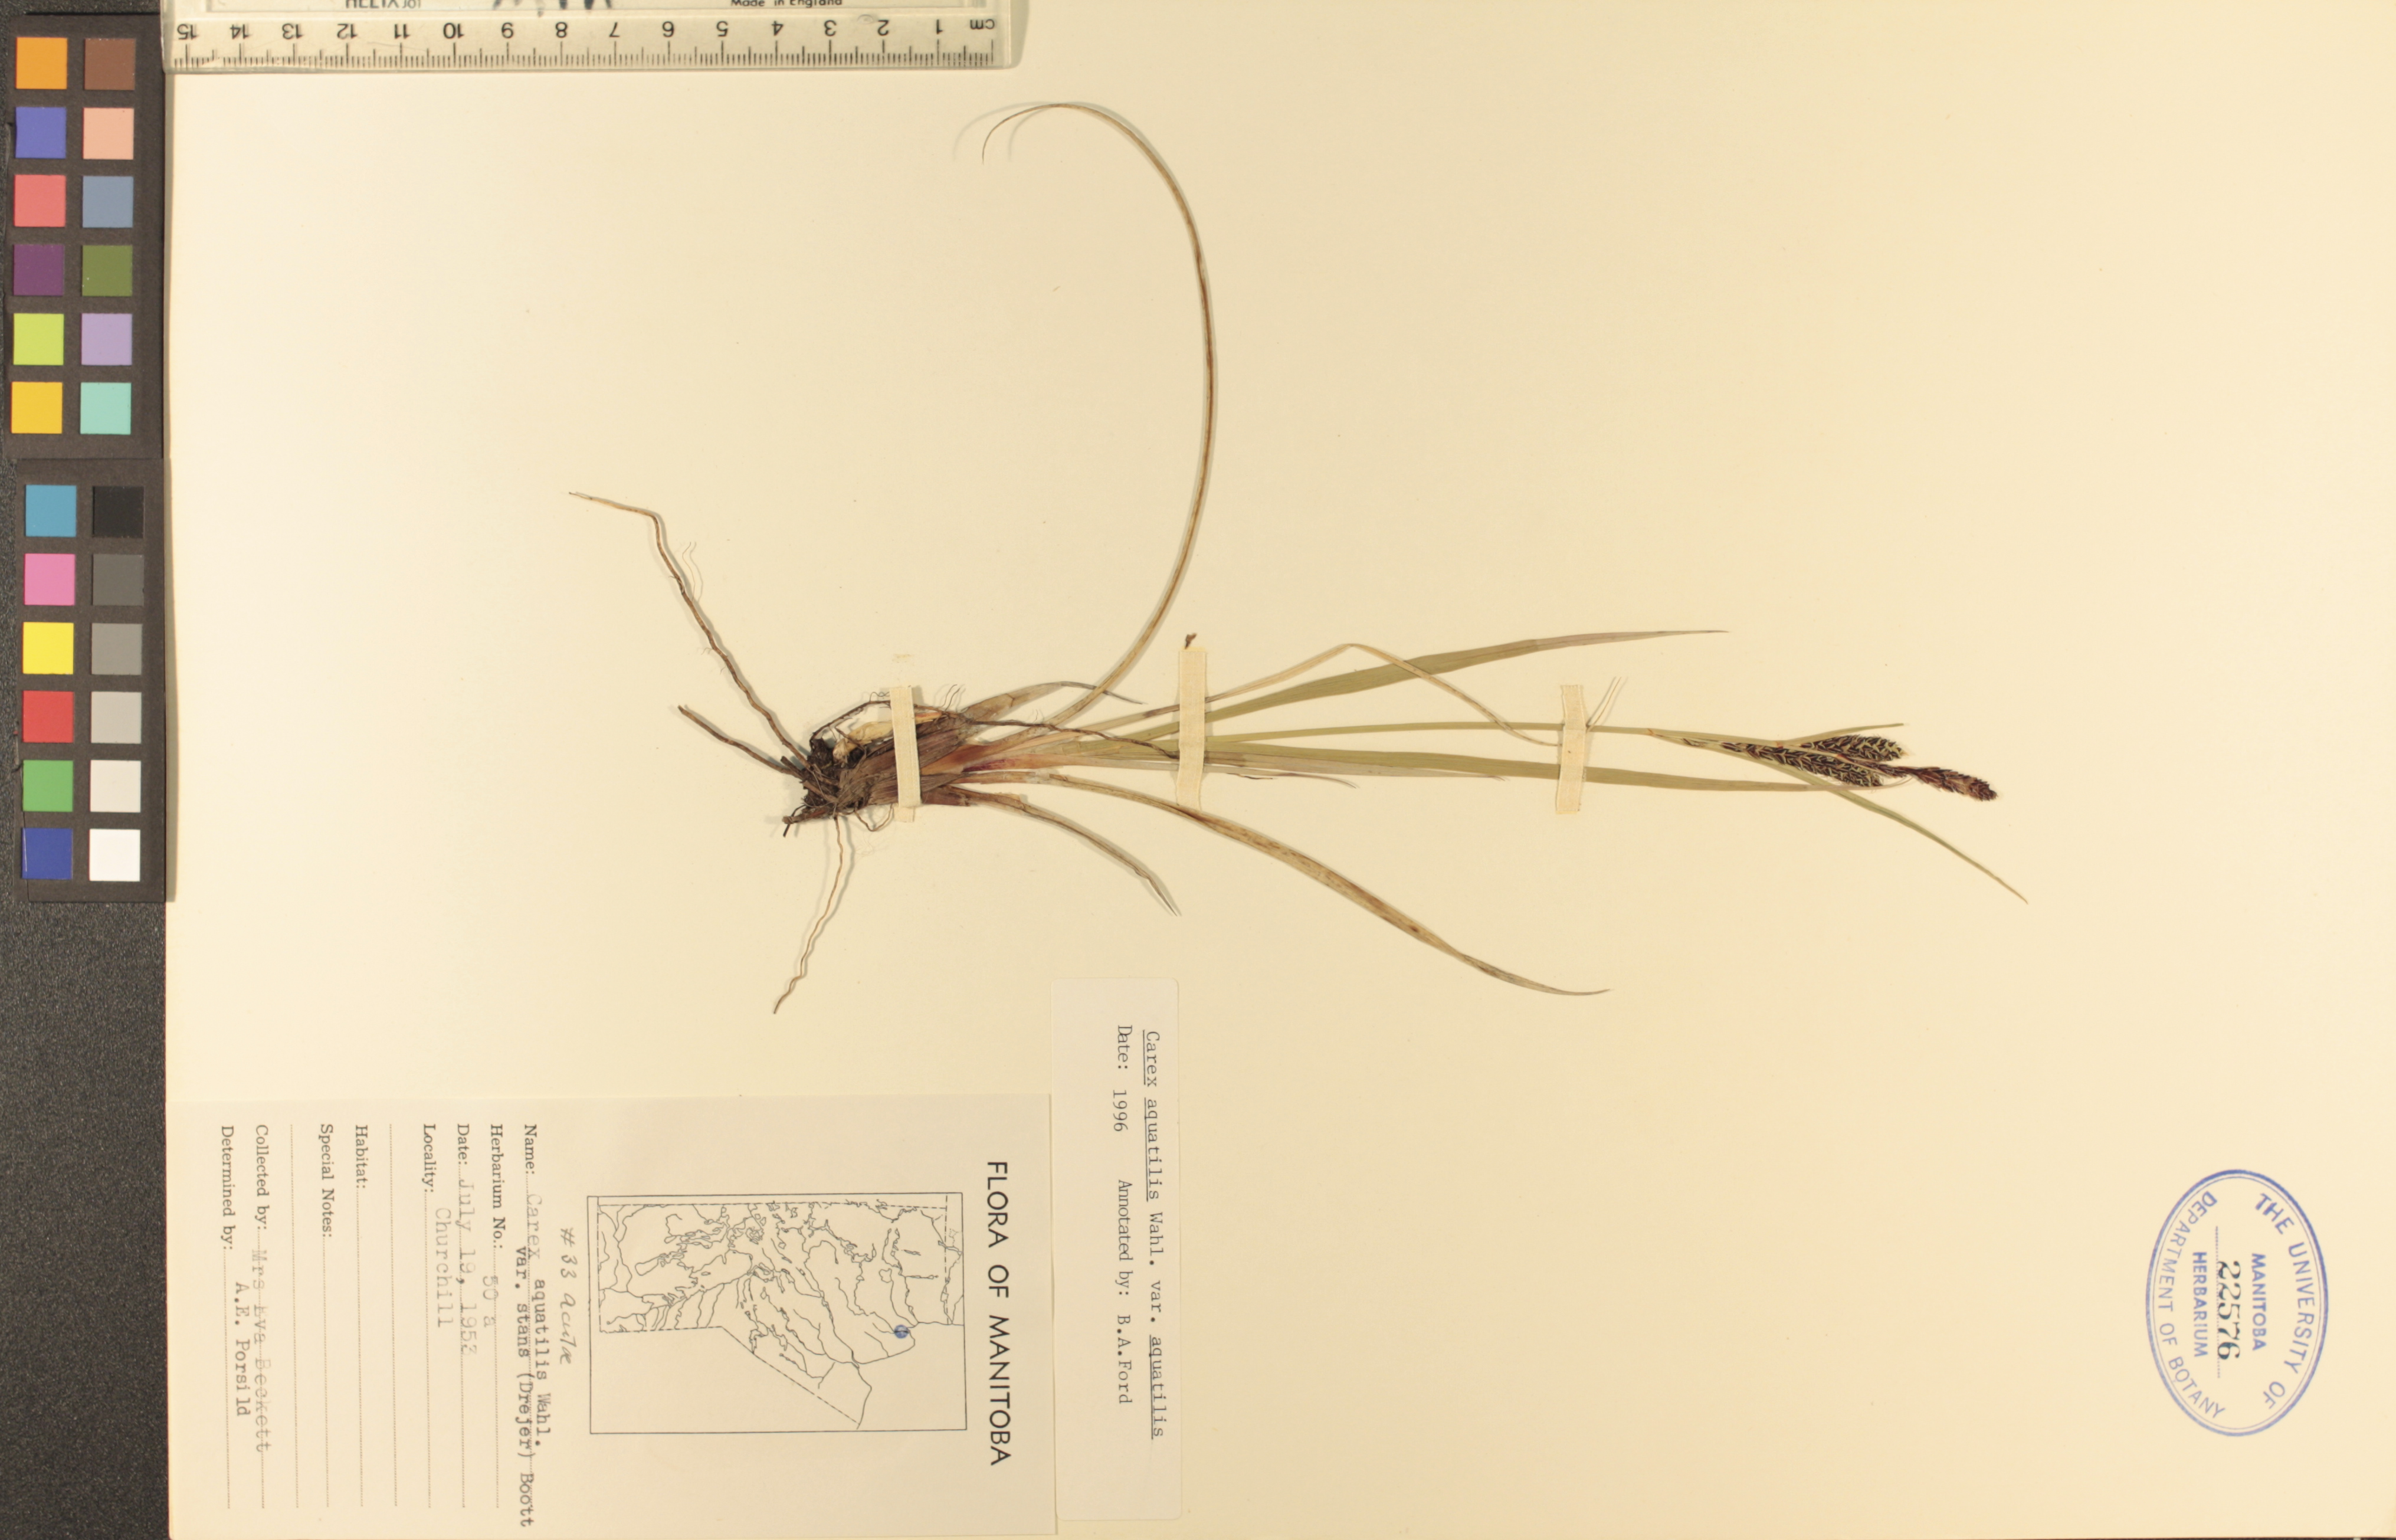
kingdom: Plantae
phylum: Tracheophyta
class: Liliopsida
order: Poales
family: Cyperaceae
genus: Carex
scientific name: Carex aquatilis
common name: Water sedge
